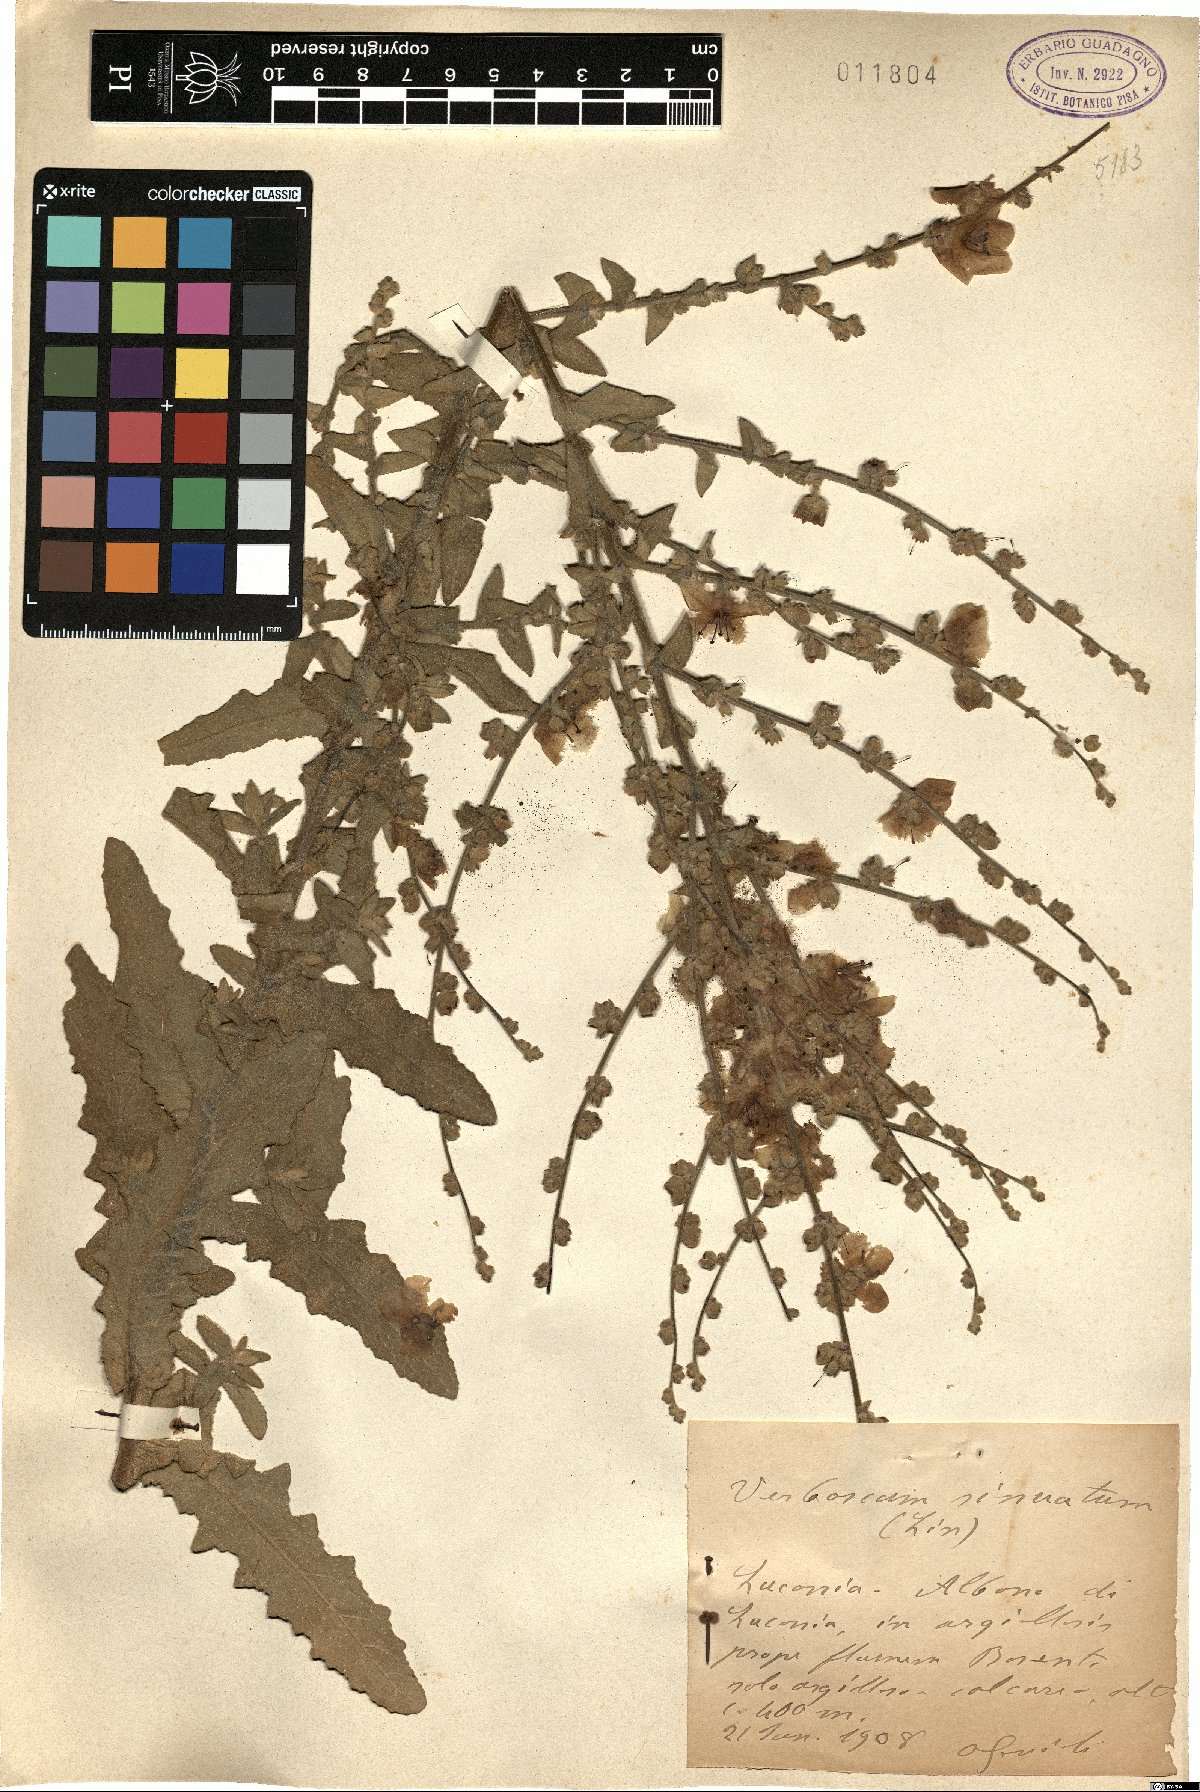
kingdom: Plantae
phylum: Tracheophyta
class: Magnoliopsida
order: Lamiales
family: Scrophulariaceae
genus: Verbascum
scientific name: Verbascum sinuatum
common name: Wavyleaf mullein
